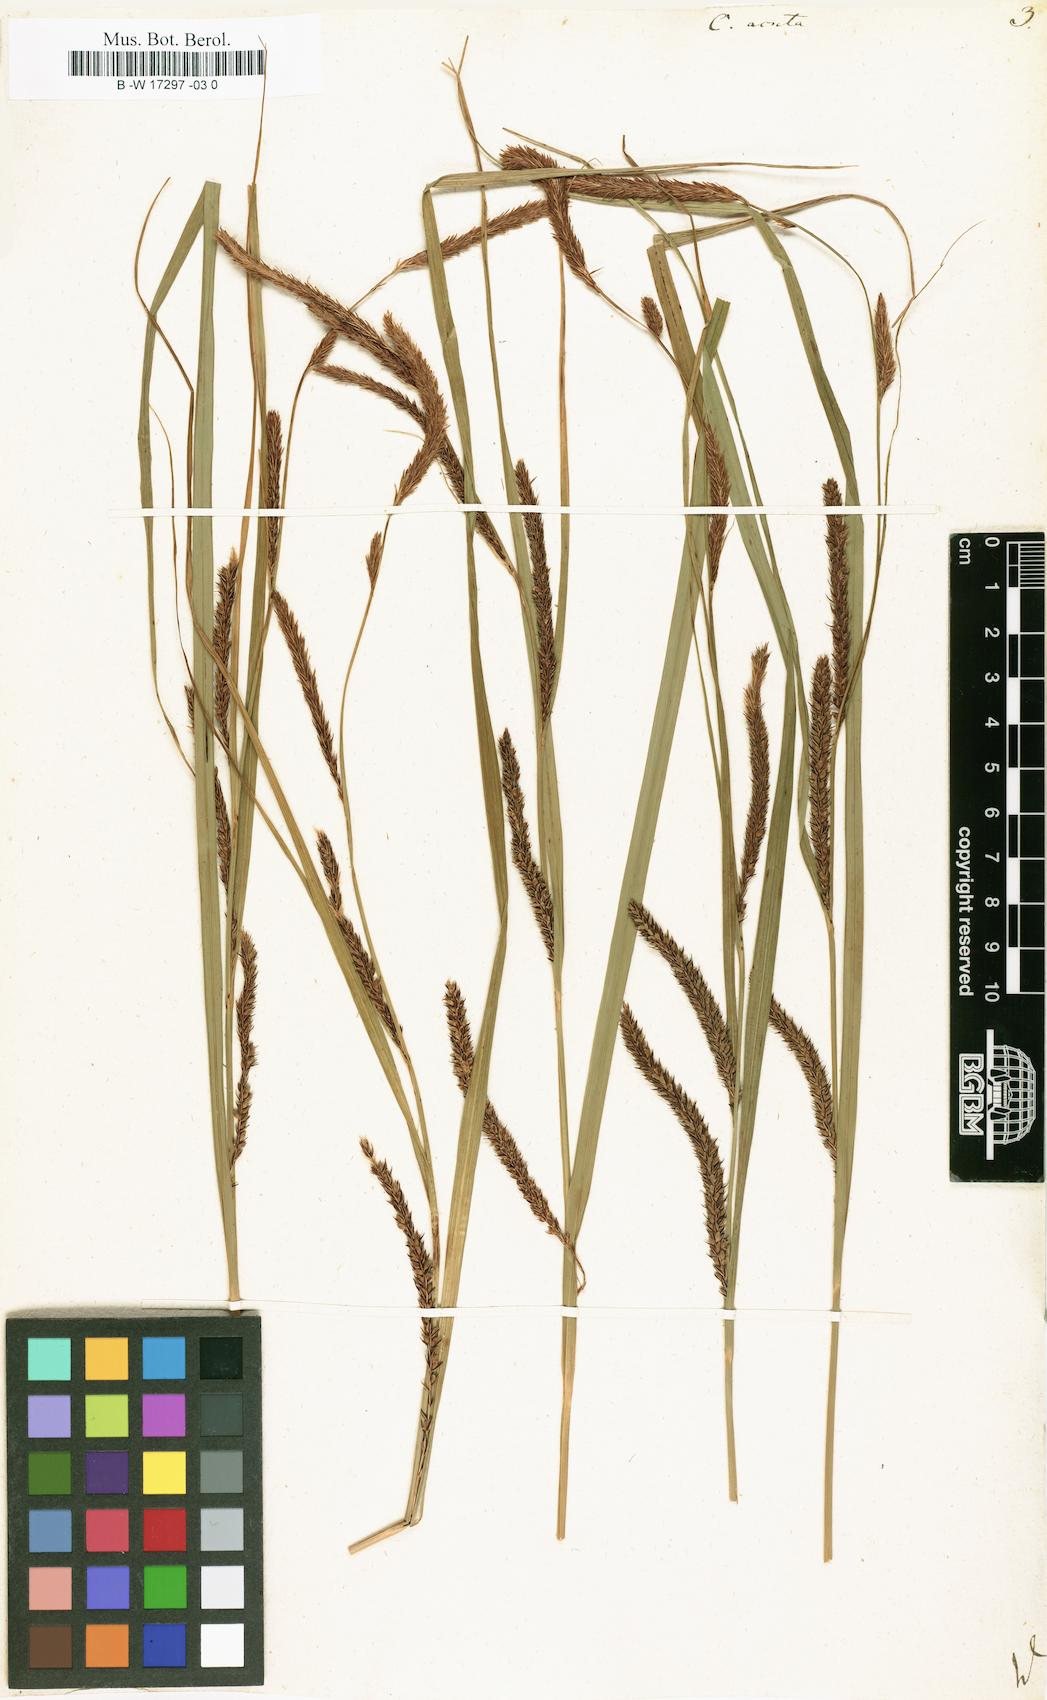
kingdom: Plantae
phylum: Tracheophyta
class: Liliopsida
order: Poales
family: Cyperaceae
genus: Carex
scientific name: Carex acuta
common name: Slender tufted-sedge
